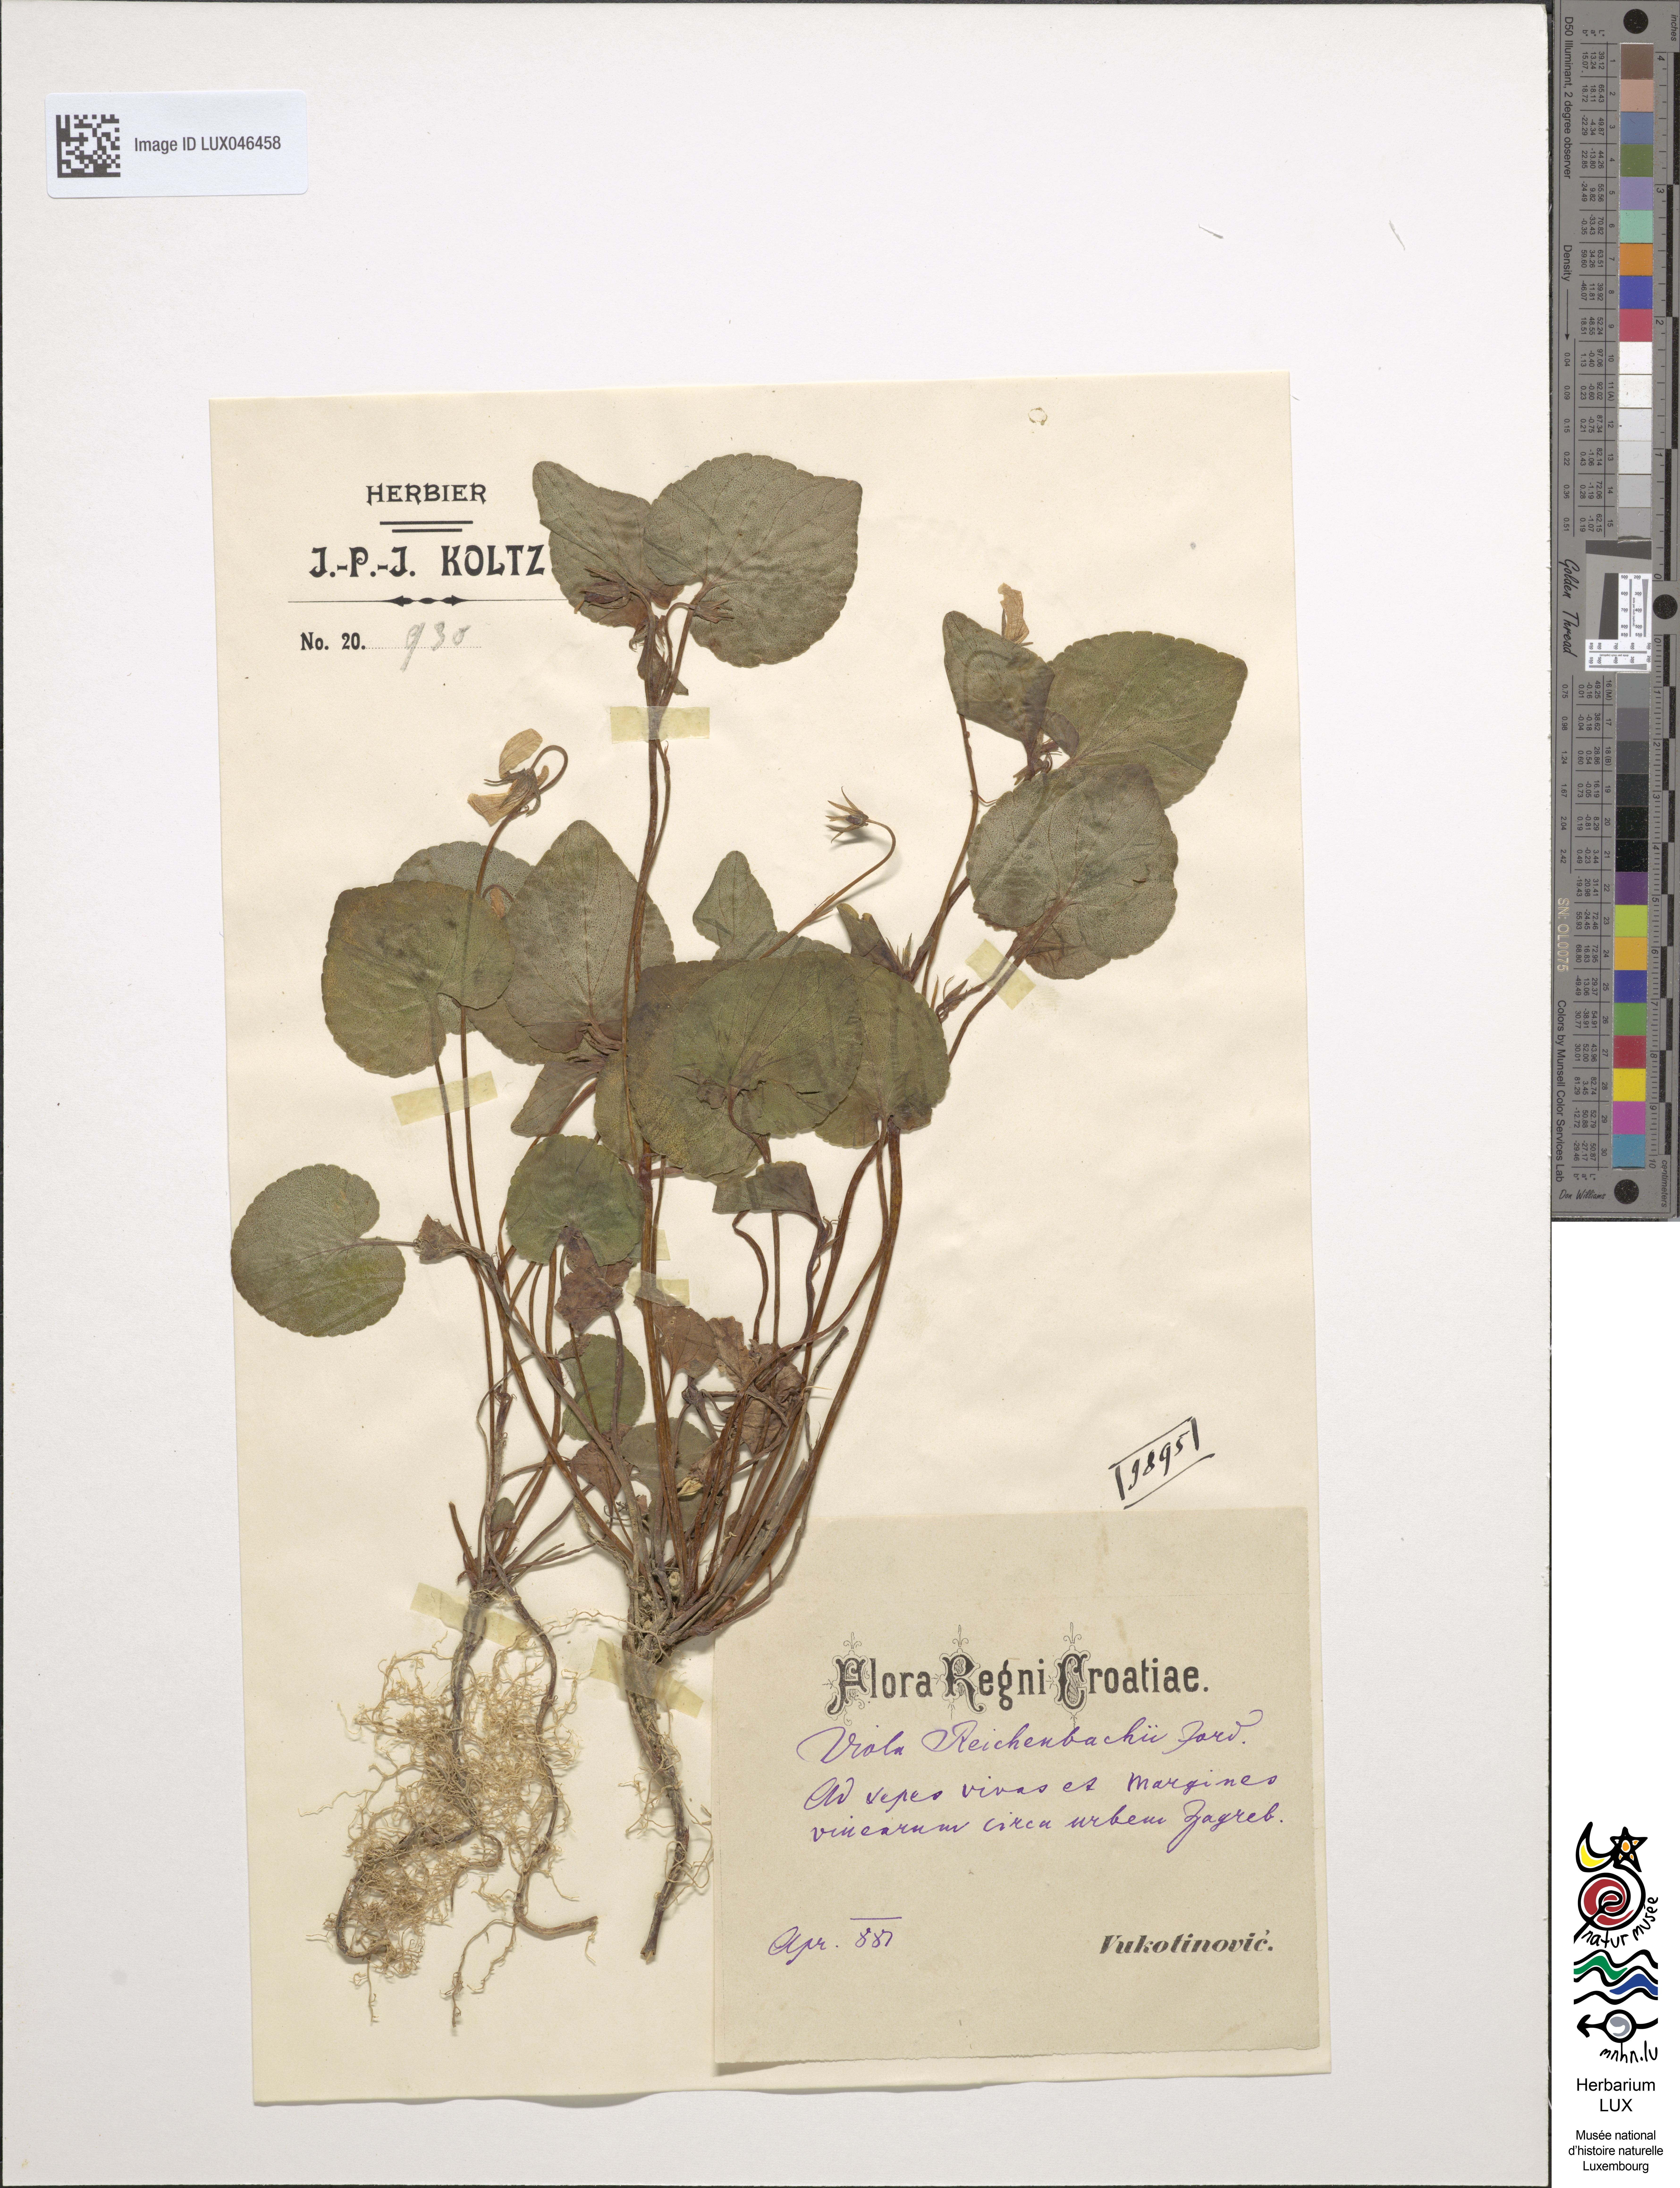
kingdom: Plantae
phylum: Tracheophyta
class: Magnoliopsida
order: Malpighiales
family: Violaceae
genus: Viola
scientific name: Viola reichenbachiana
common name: Early dog-violet
